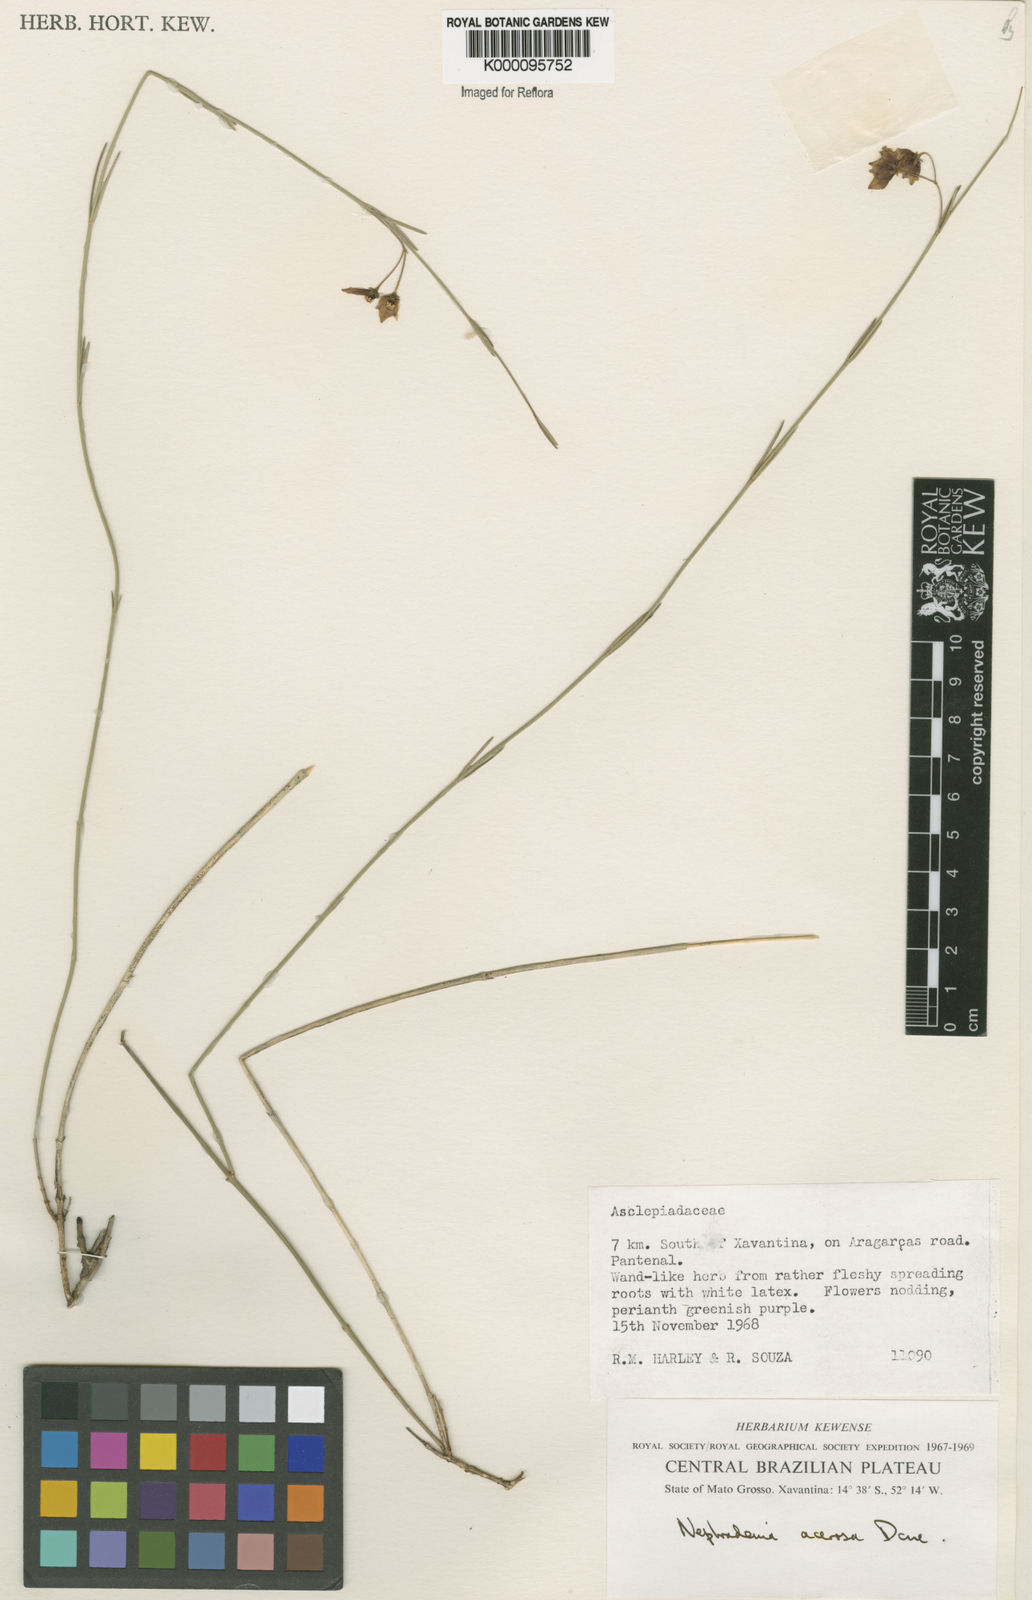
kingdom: Plantae
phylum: Tracheophyta
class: Magnoliopsida
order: Gentianales
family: Apocynaceae
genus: Nephradenia
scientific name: Nephradenia acerosa
